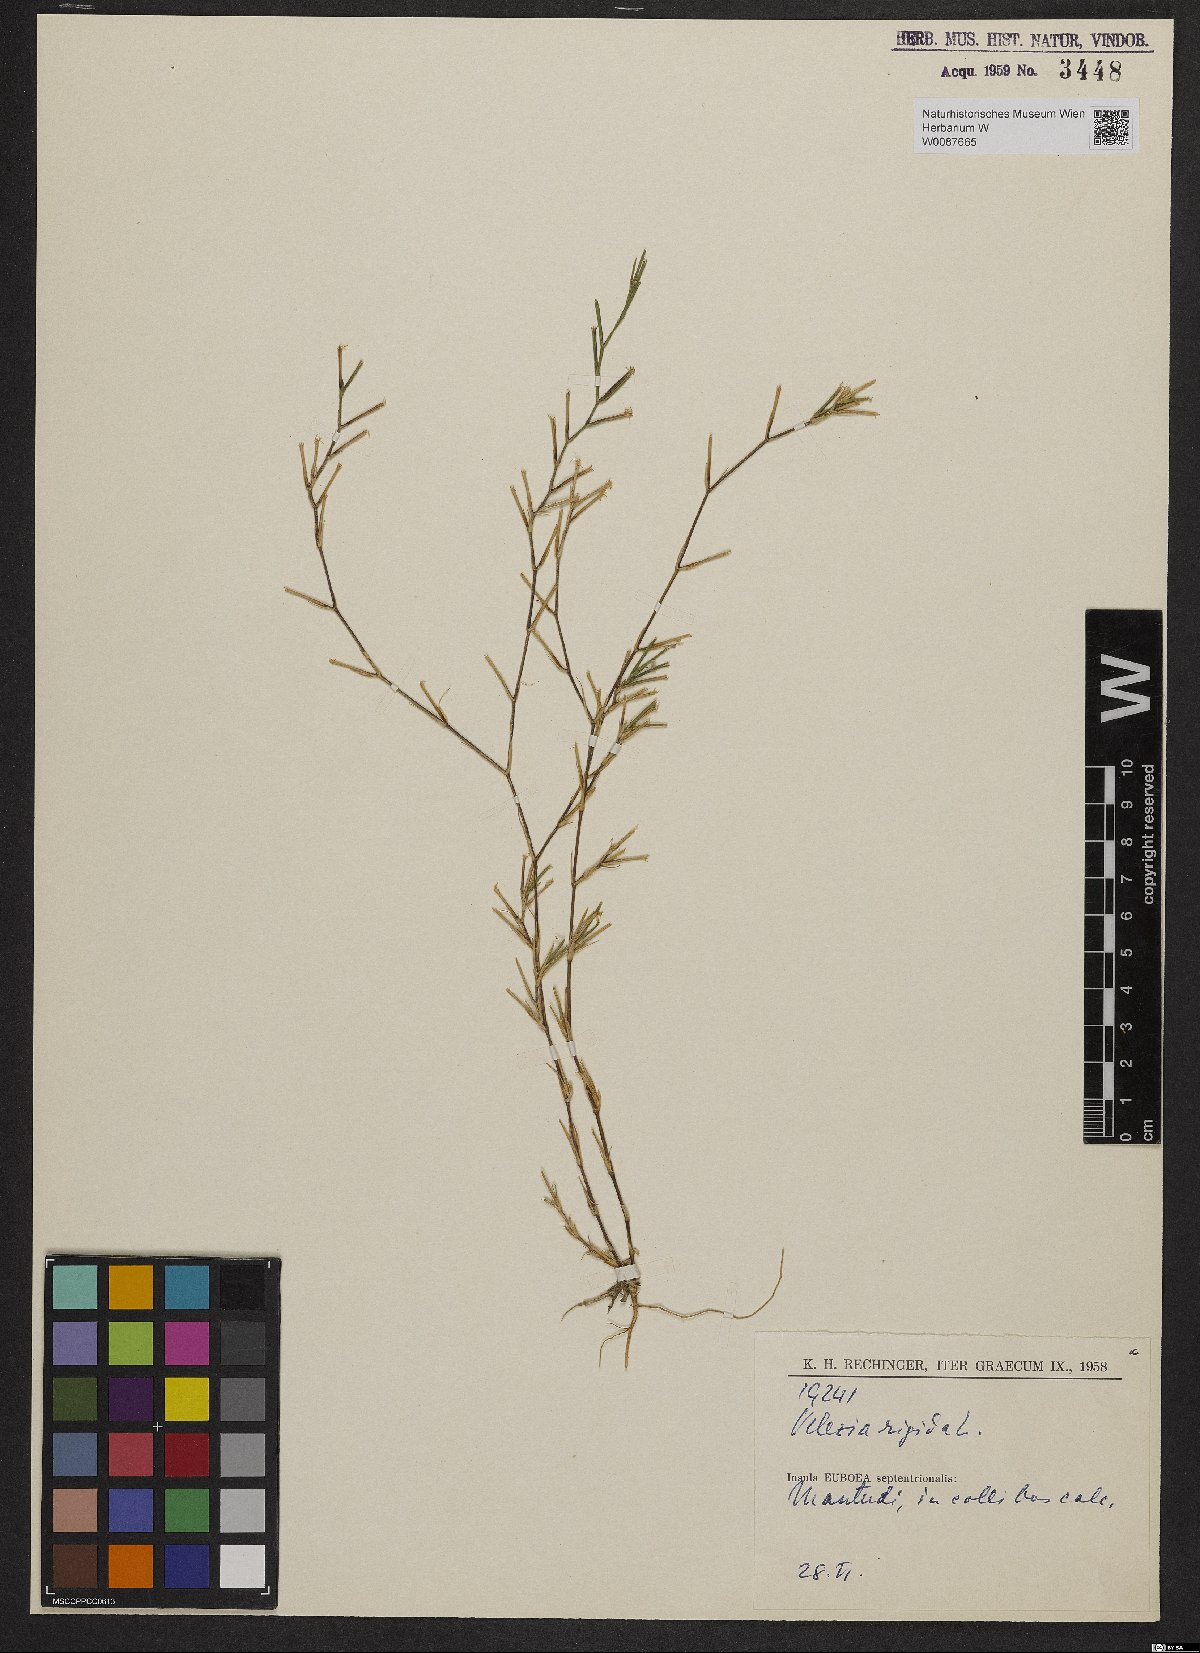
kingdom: Plantae
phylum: Tracheophyta
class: Magnoliopsida
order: Caryophyllales
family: Caryophyllaceae
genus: Dianthus
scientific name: Dianthus nudiflorus
